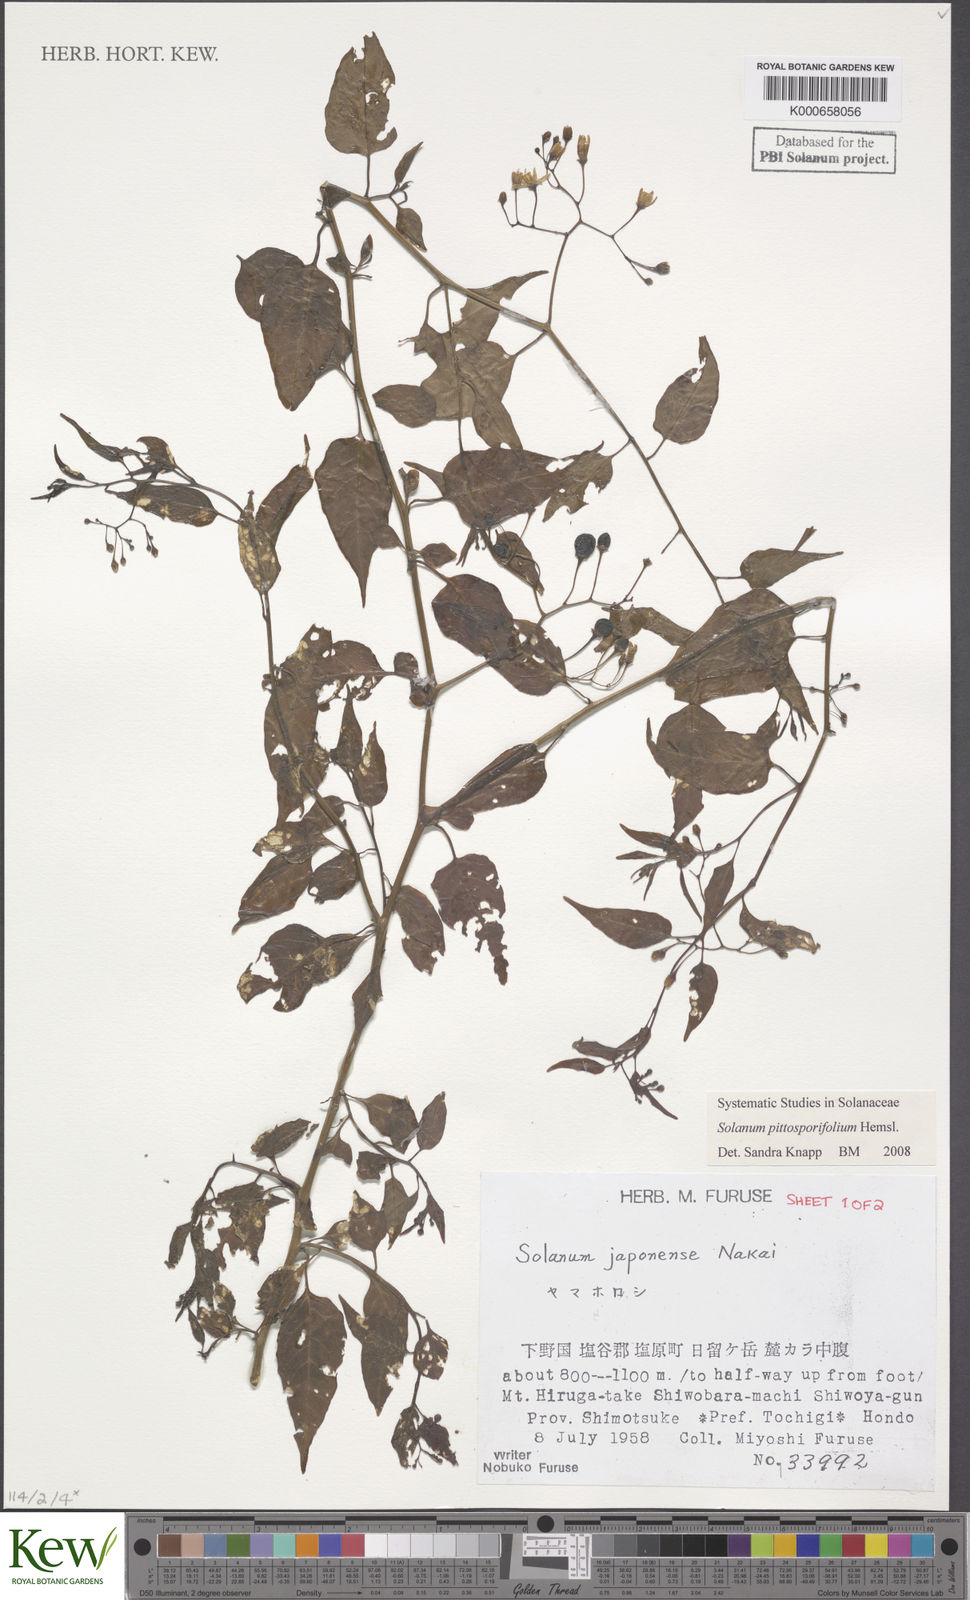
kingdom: Plantae
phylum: Tracheophyta
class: Magnoliopsida
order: Solanales
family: Solanaceae
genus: Solanum
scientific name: Solanum pittosporifolium
